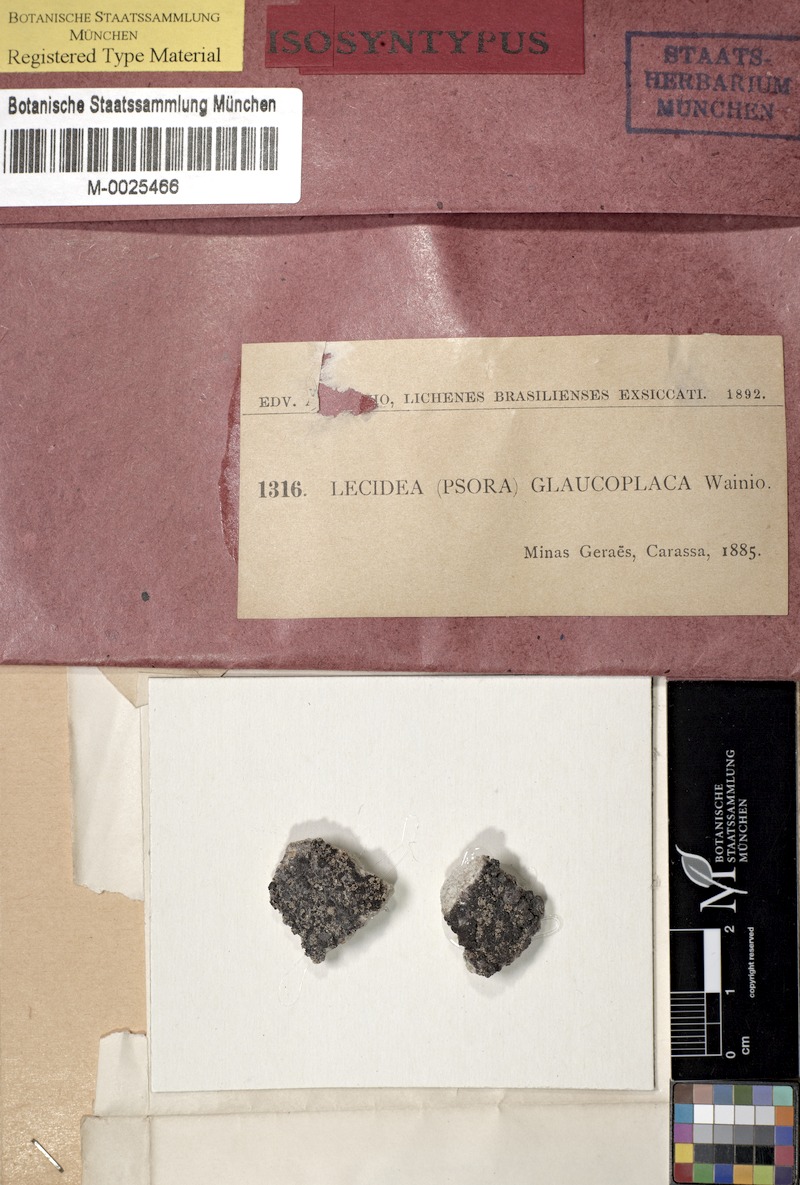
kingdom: Fungi
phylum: Ascomycota
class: Lecanoromycetes
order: Lecideales
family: Lecideaceae
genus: Lecidea
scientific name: Lecidea
